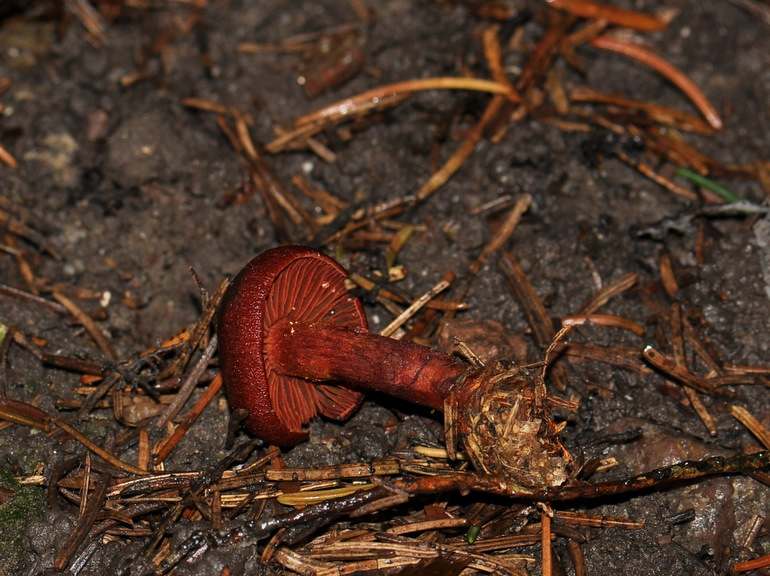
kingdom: Fungi
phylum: Basidiomycota
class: Agaricomycetes
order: Agaricales
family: Cortinariaceae
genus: Cortinarius
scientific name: Cortinarius sanguineus
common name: blodrød slørhat
